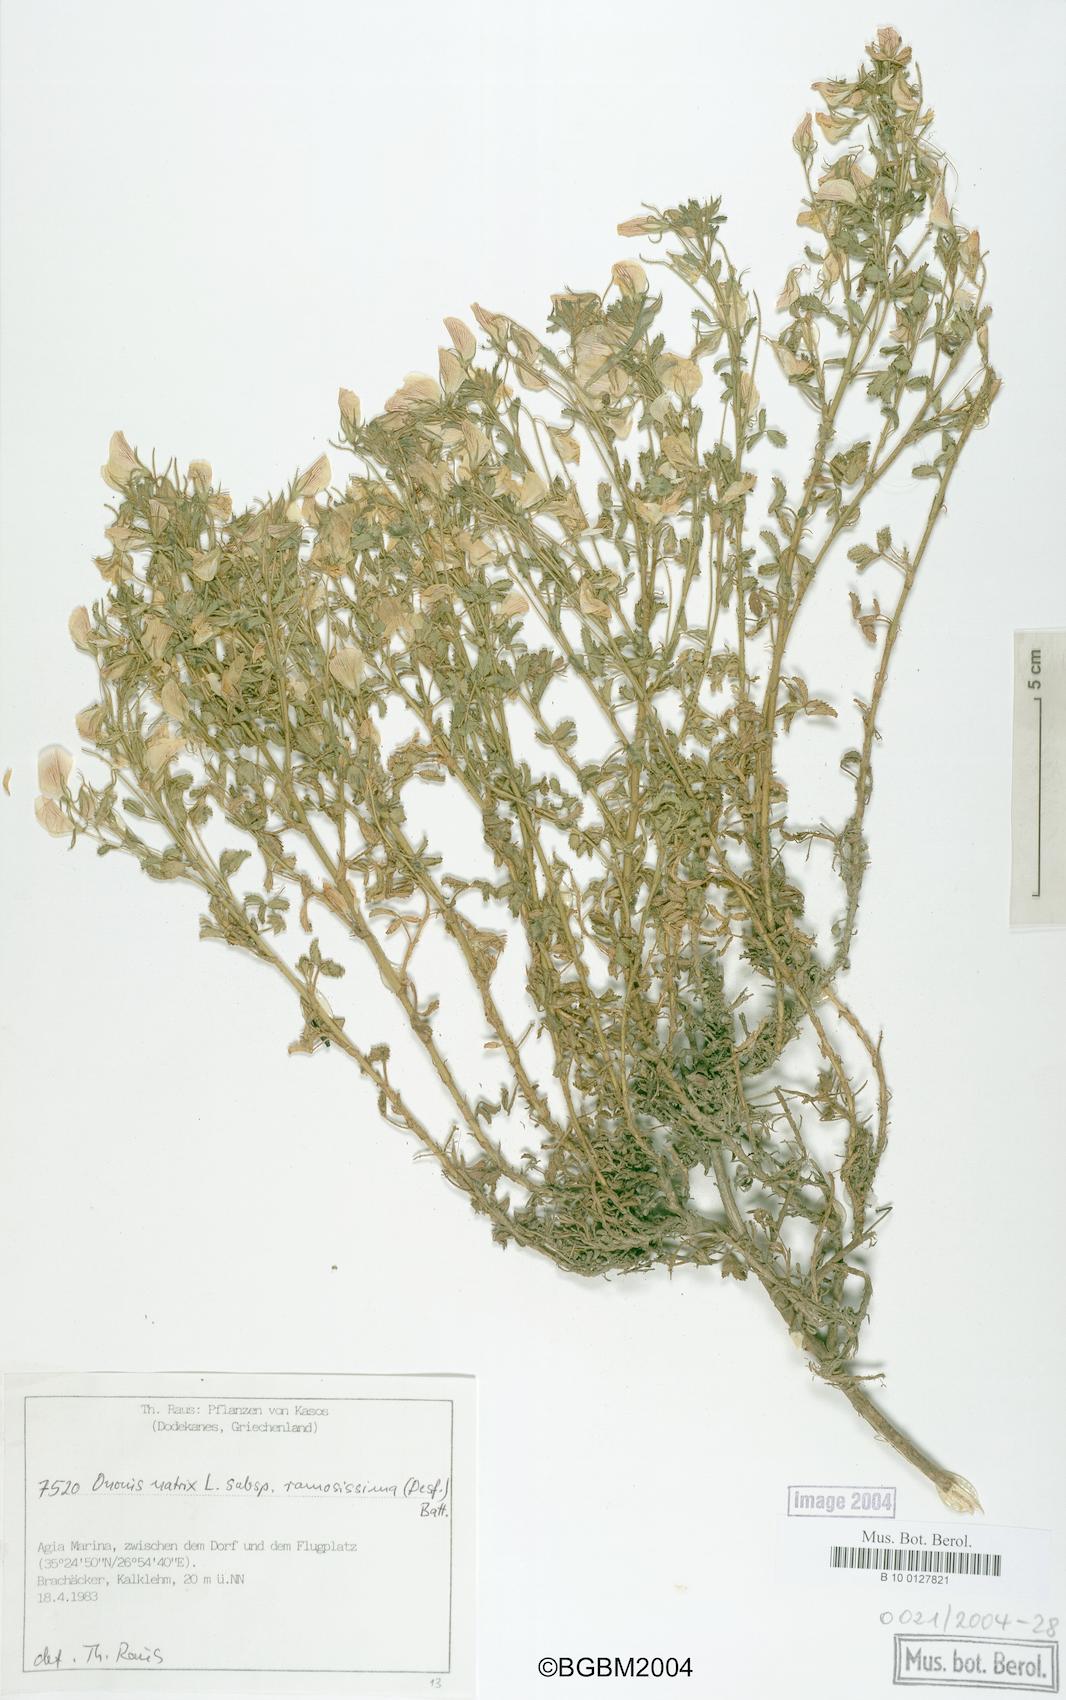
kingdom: Plantae
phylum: Tracheophyta
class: Magnoliopsida
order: Fabales
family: Fabaceae
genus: Ononis
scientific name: Ononis natrix
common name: Yellow restharrow
